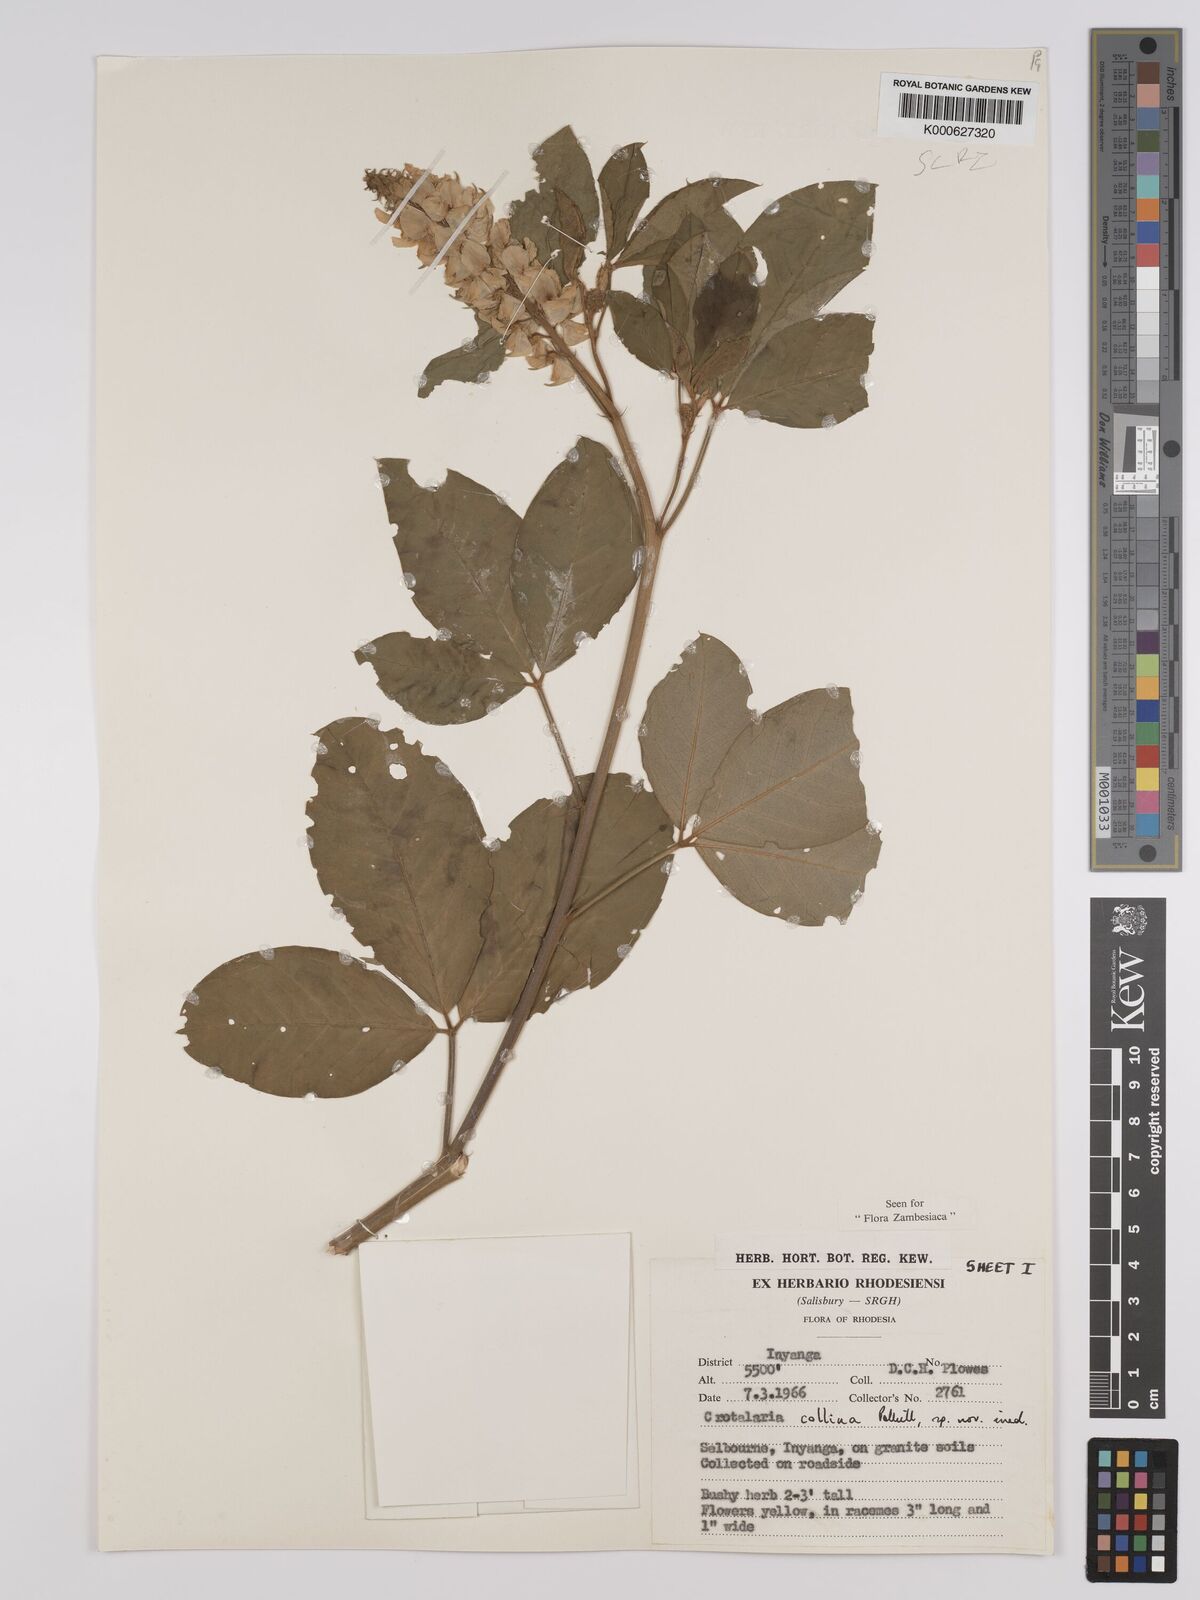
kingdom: Plantae
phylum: Tracheophyta
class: Magnoliopsida
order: Fabales
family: Fabaceae
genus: Crotalaria
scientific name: Crotalaria collina
